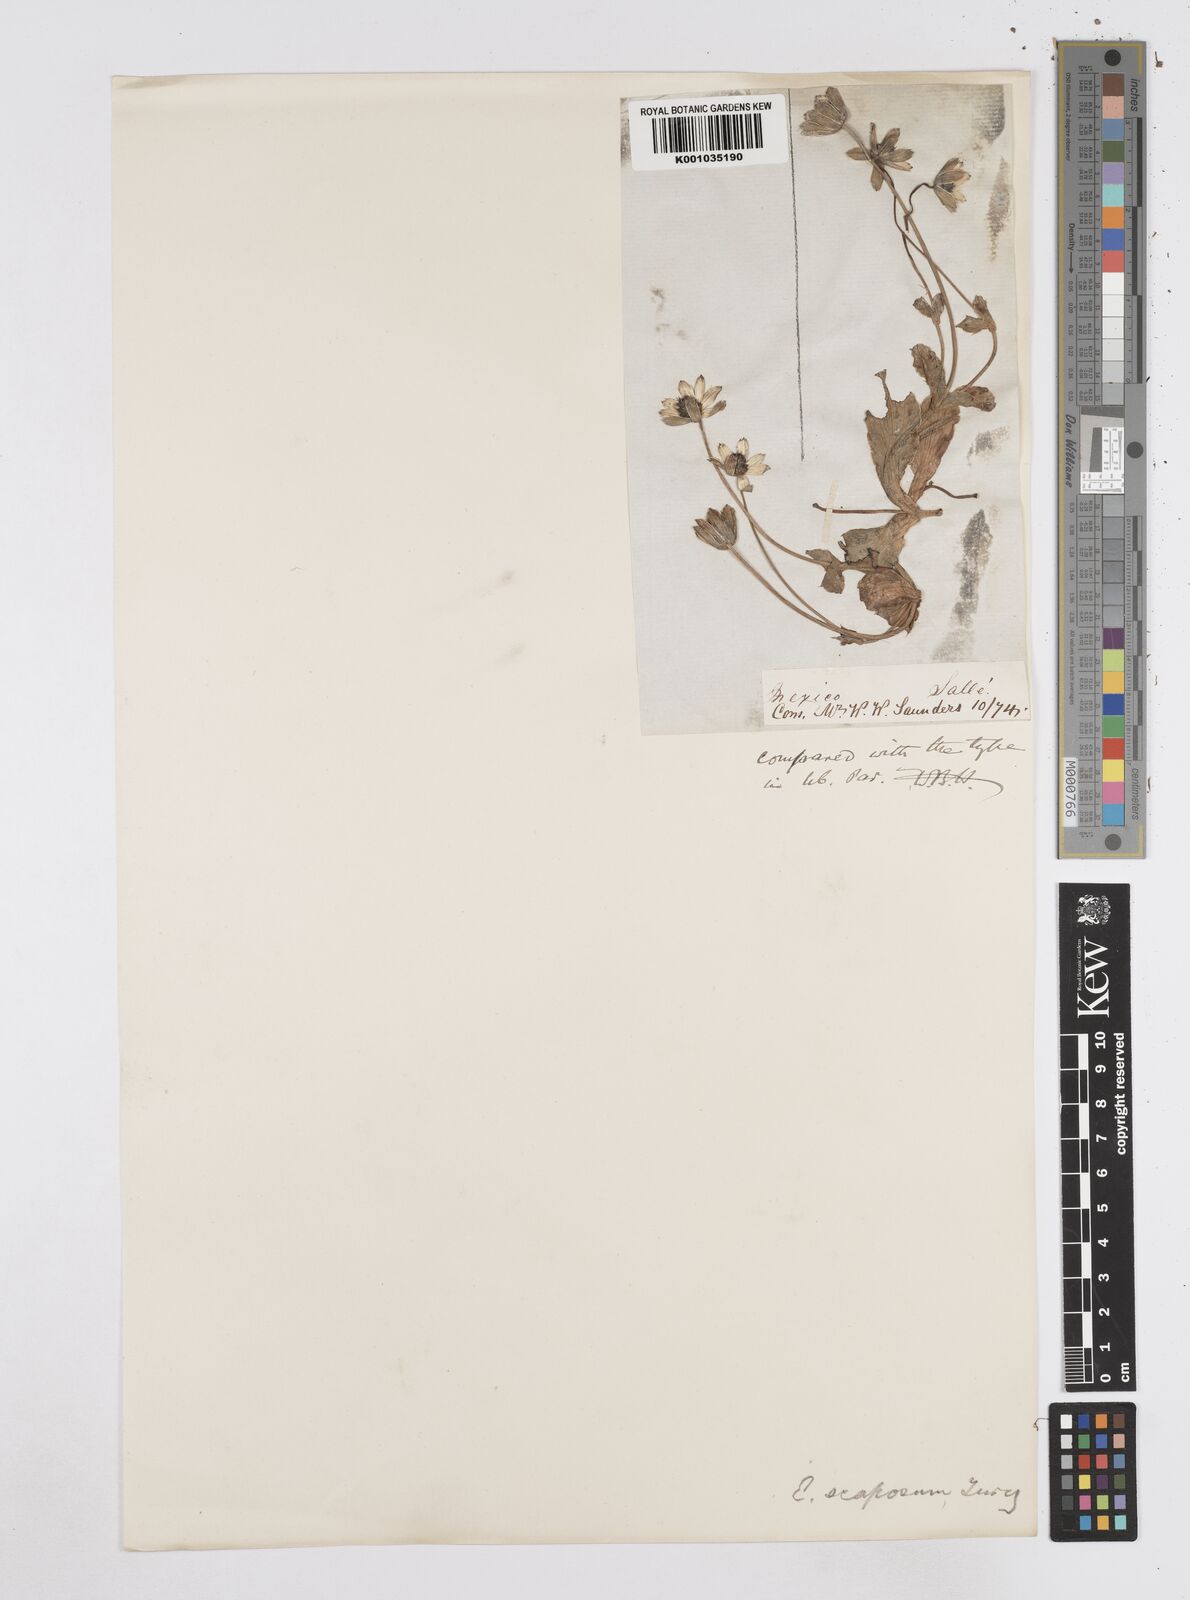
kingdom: Plantae
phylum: Tracheophyta
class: Magnoliopsida
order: Apiales
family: Apiaceae
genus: Eryngium
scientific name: Eryngium scaposum
